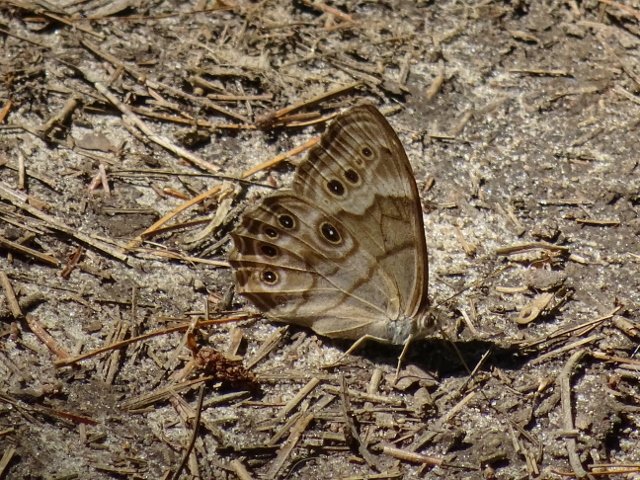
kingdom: Animalia
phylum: Arthropoda
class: Insecta
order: Lepidoptera
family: Nymphalidae
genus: Lethe
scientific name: Lethe anthedon
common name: Northern Pearly-Eye
